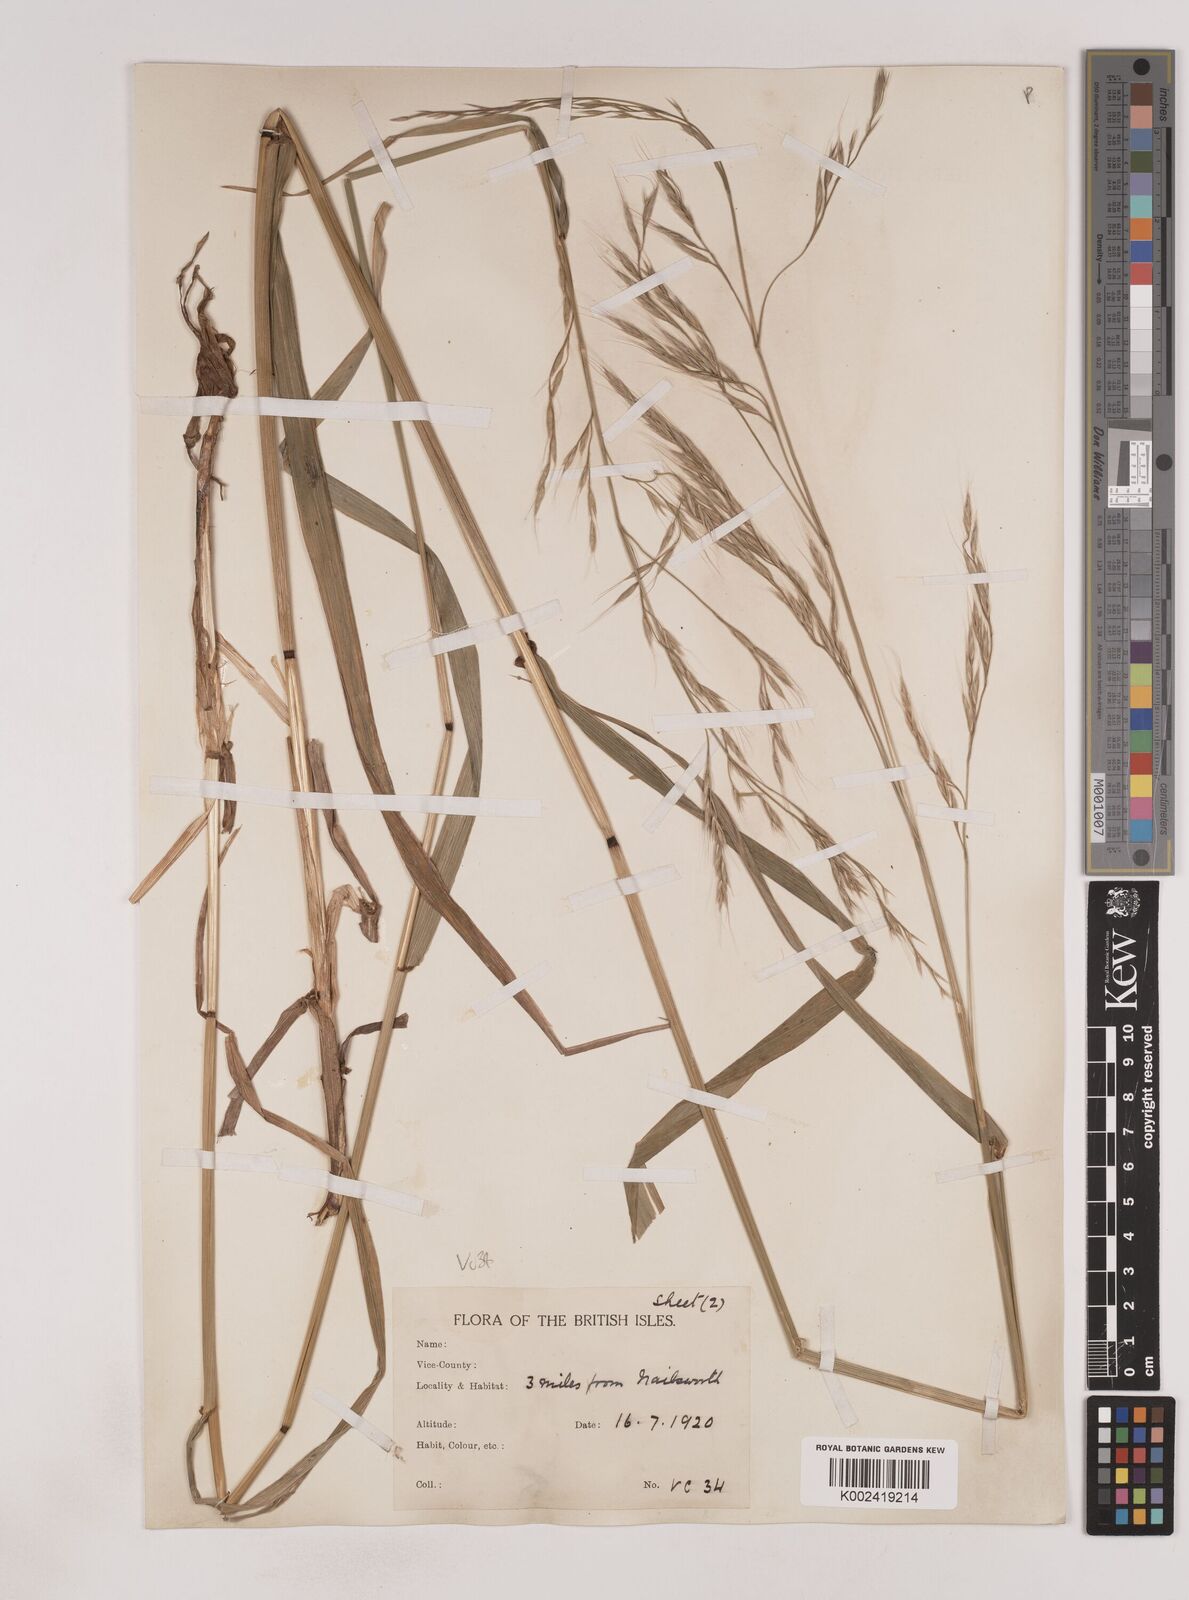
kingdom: Plantae
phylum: Tracheophyta
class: Liliopsida
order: Poales
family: Poaceae
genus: Lolium
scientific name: Lolium giganteum
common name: Giant fescue
